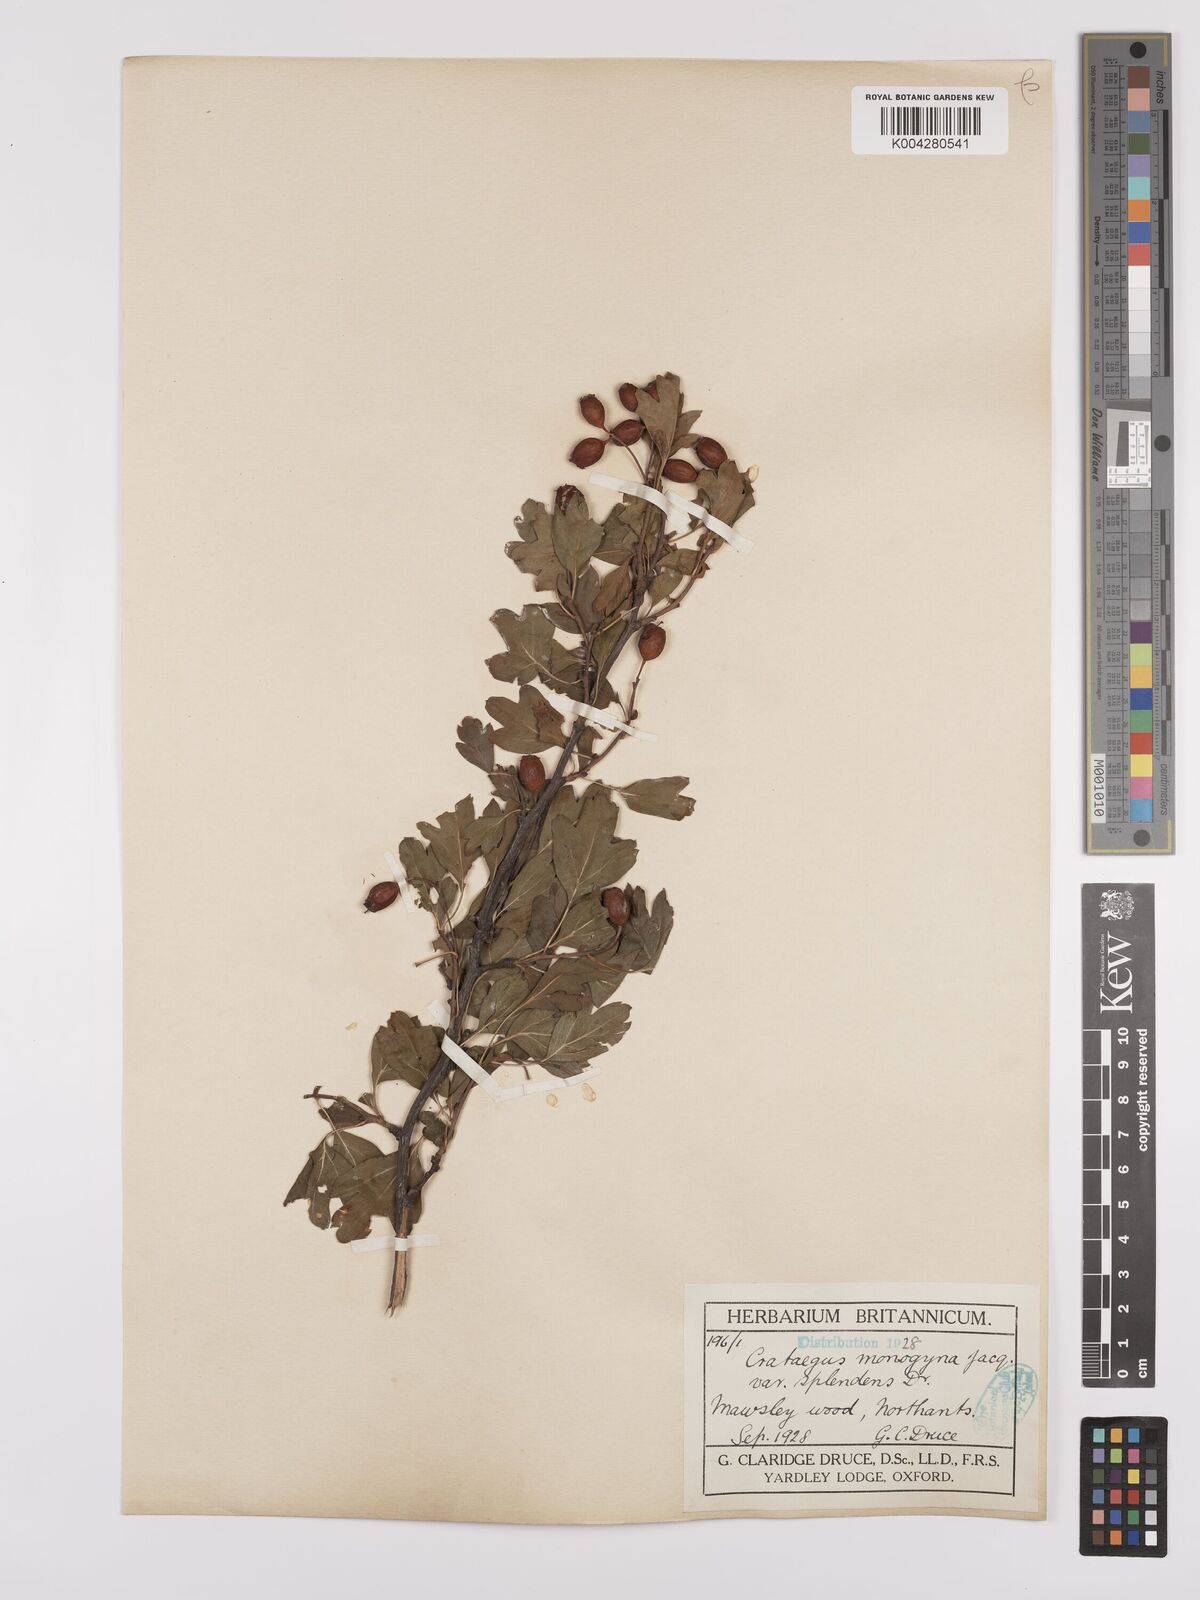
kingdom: Plantae
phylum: Tracheophyta
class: Magnoliopsida
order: Rosales
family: Rosaceae
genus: Crataegus
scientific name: Crataegus monogyna
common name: Hawthorn
